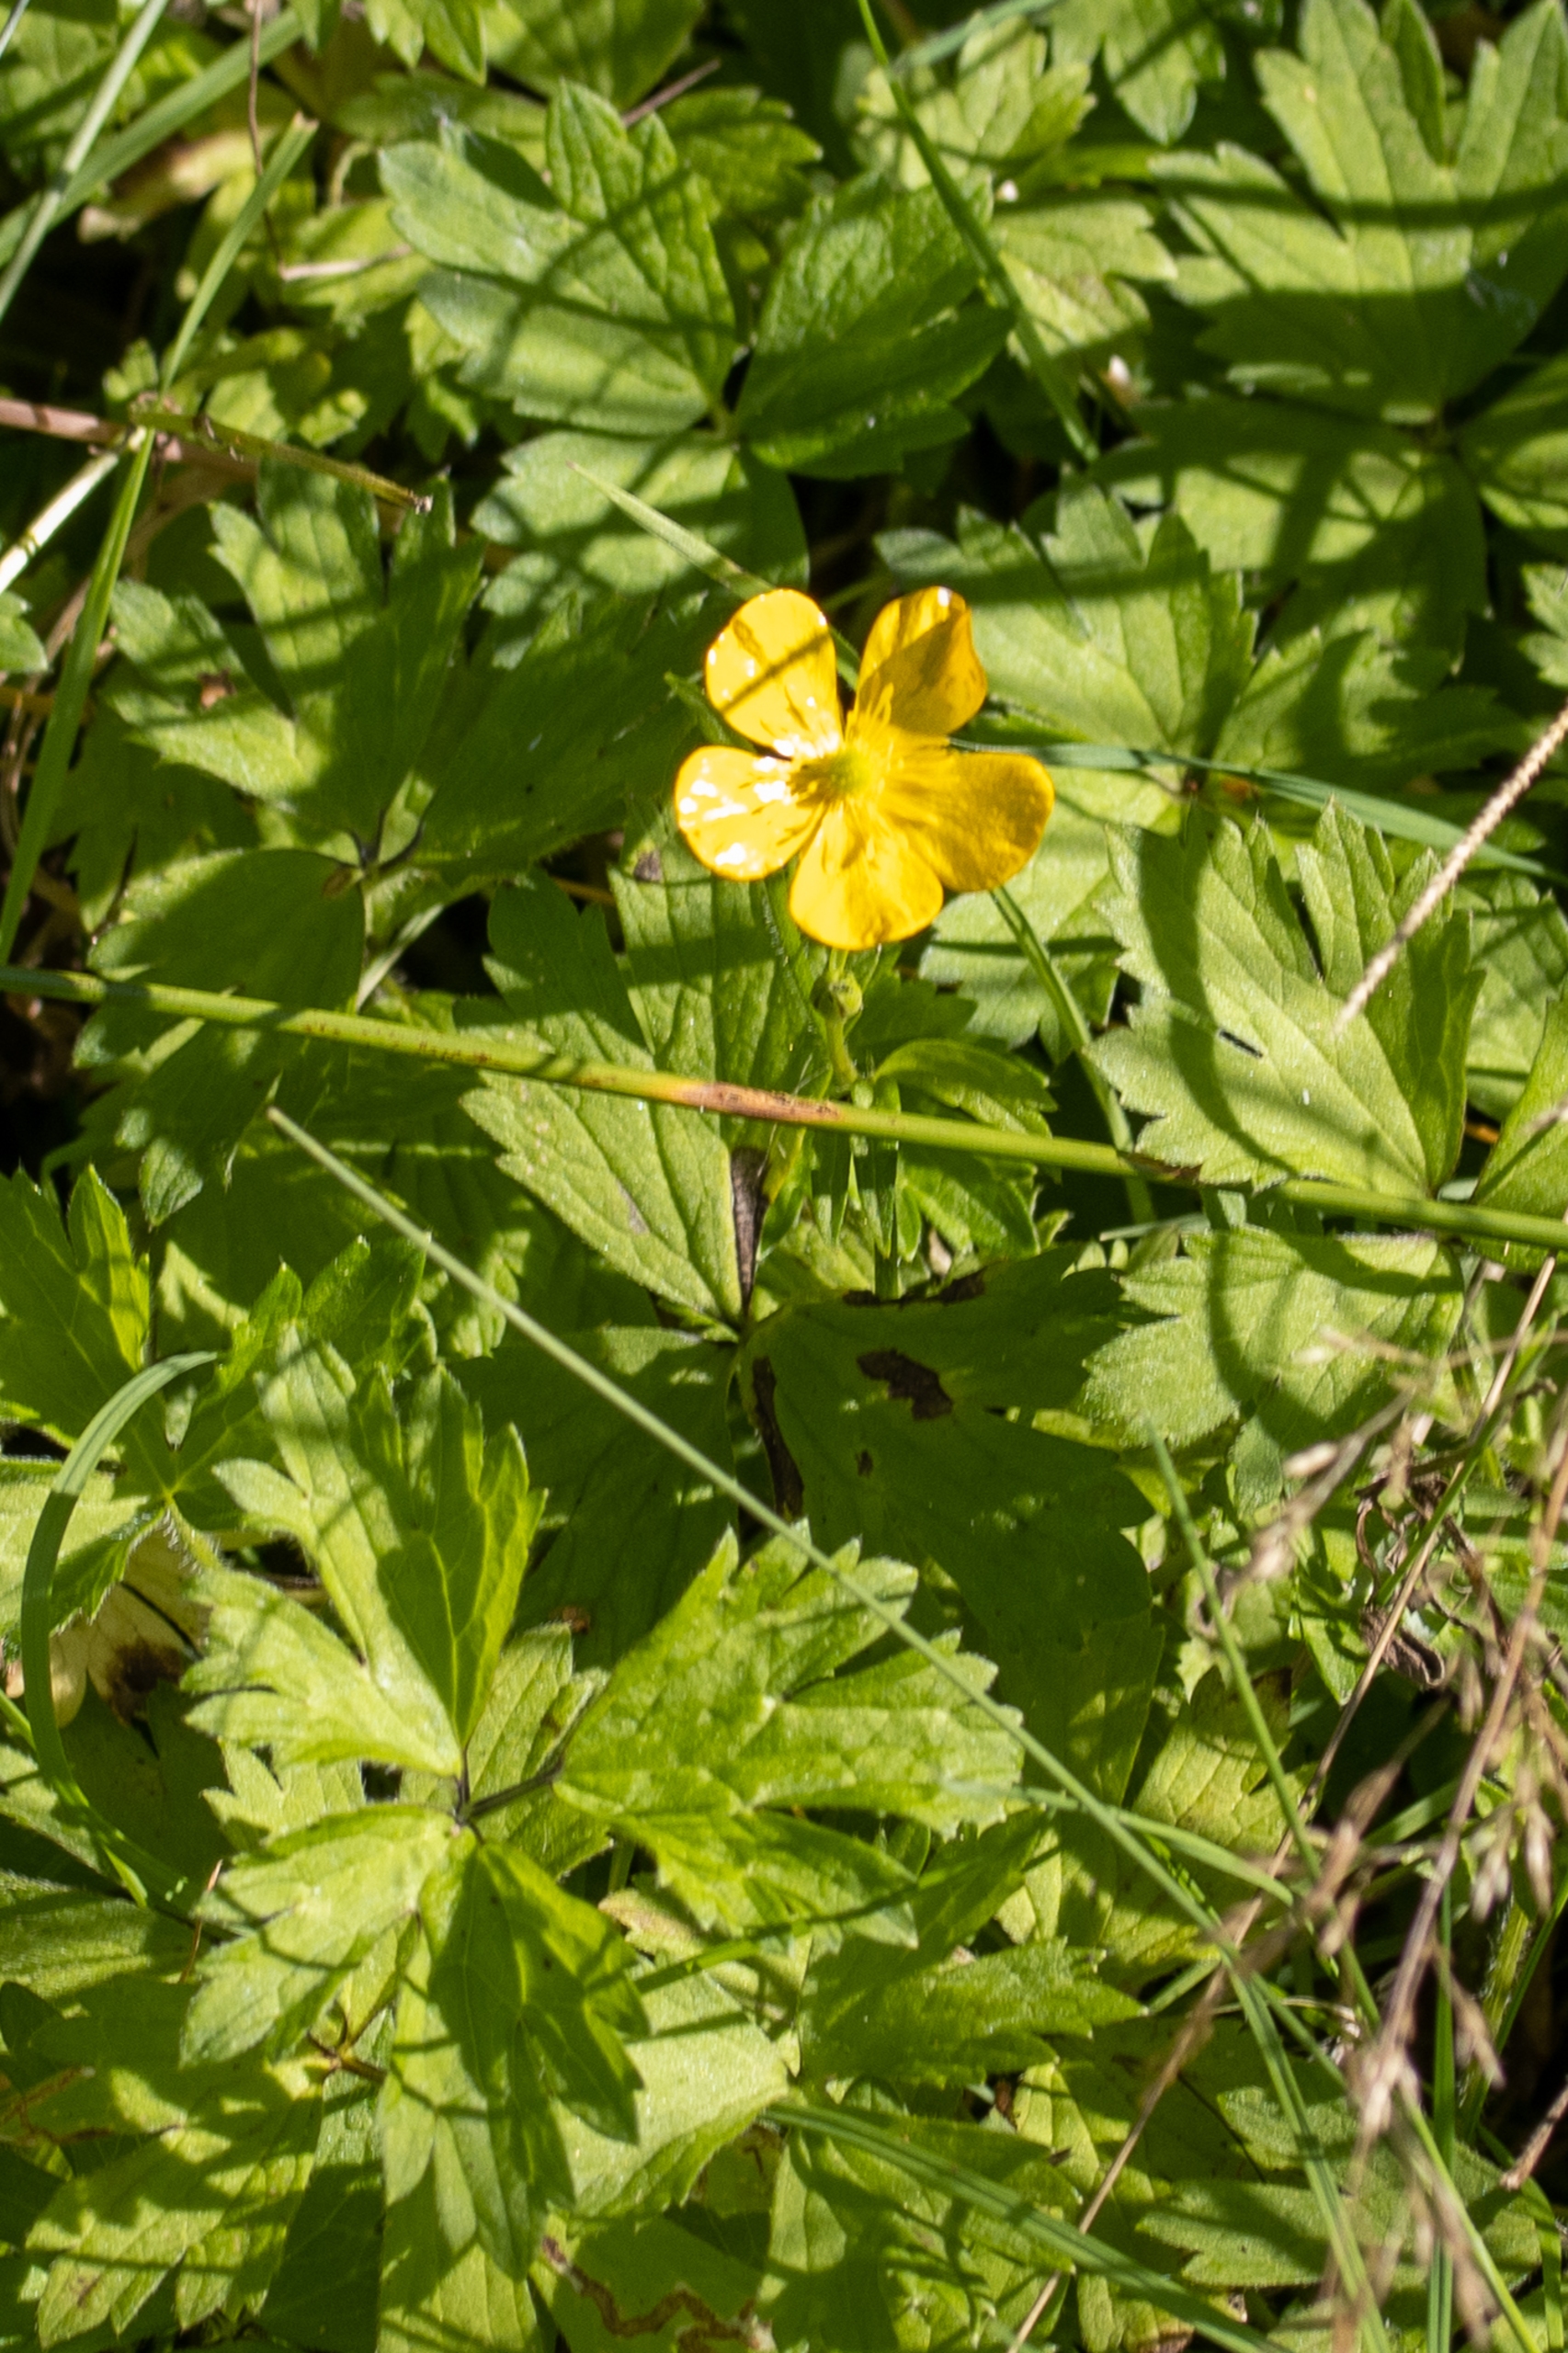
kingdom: Plantae
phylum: Tracheophyta
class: Magnoliopsida
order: Ranunculales
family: Ranunculaceae
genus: Ranunculus
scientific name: Ranunculus repens
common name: Lav ranunkel
